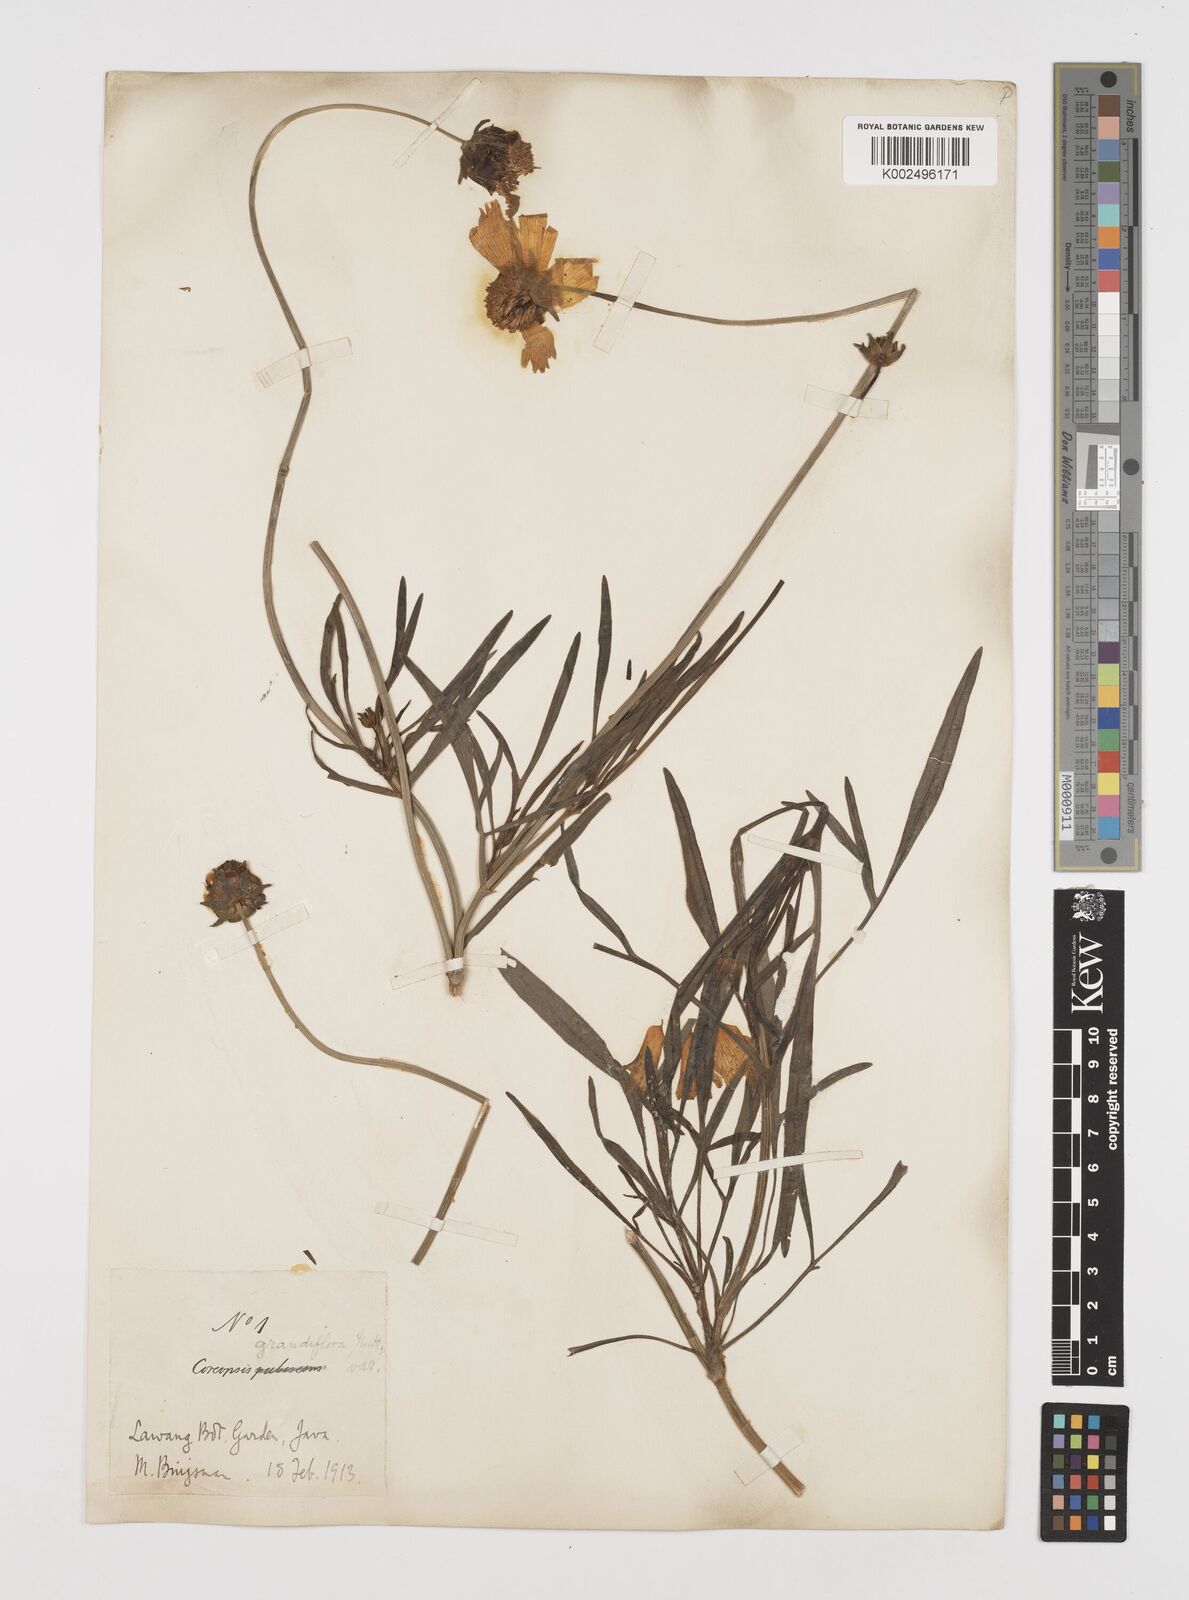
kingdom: Plantae
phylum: Tracheophyta
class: Magnoliopsida
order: Asterales
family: Asteraceae
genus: Coreopsis
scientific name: Coreopsis grandiflora
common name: Large-flowered tickseed
